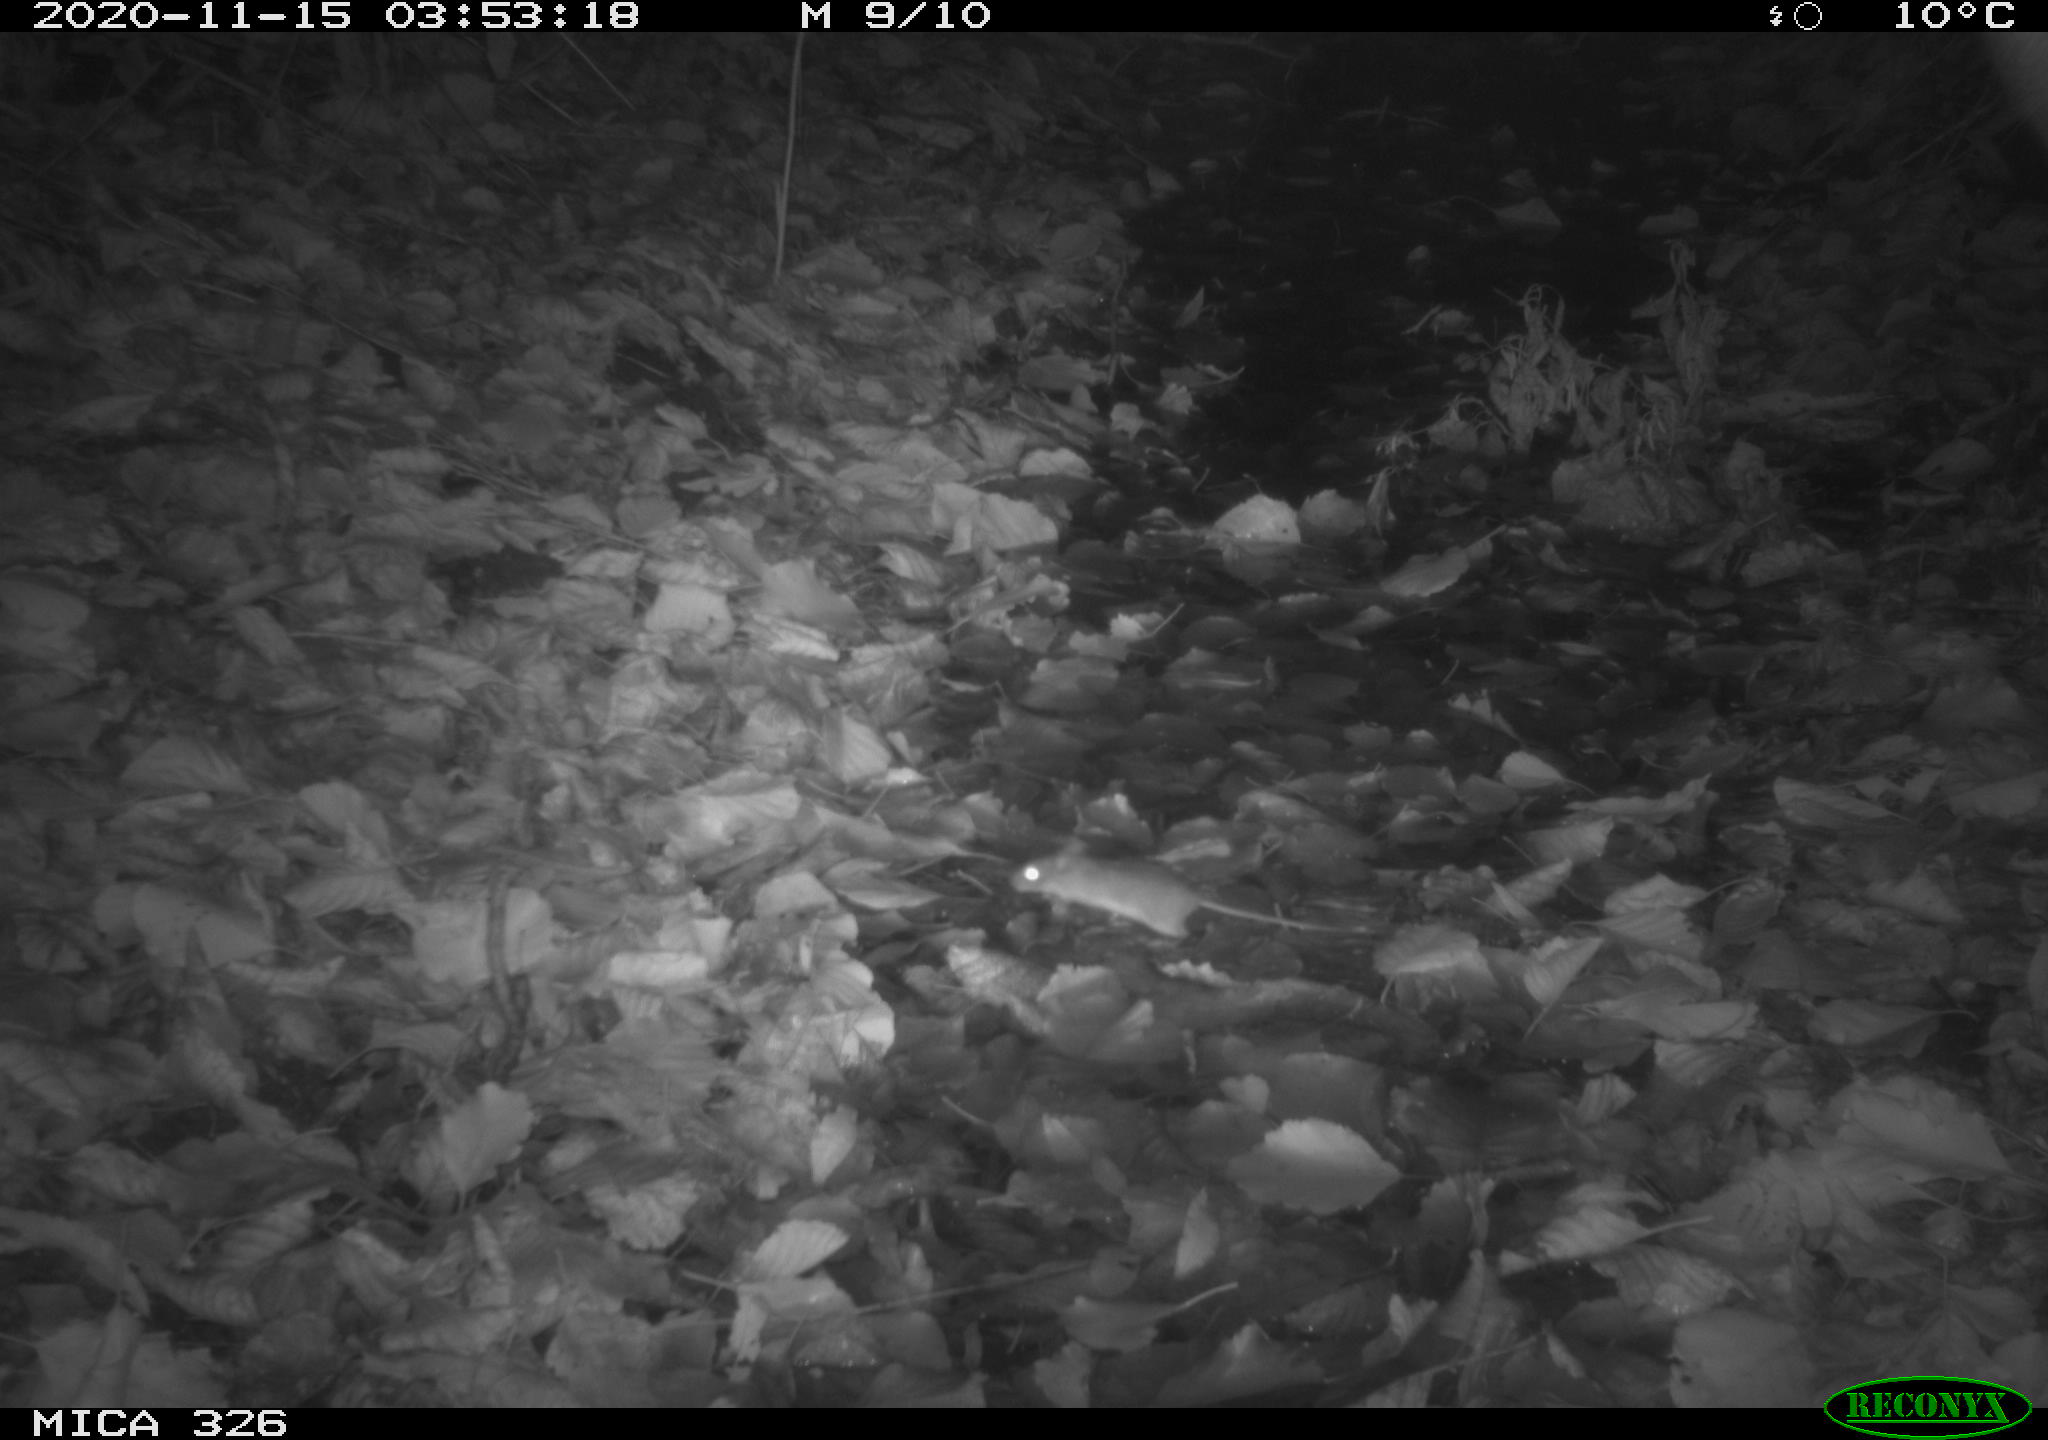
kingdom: Animalia
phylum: Chordata
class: Mammalia
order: Rodentia
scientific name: Rodentia
